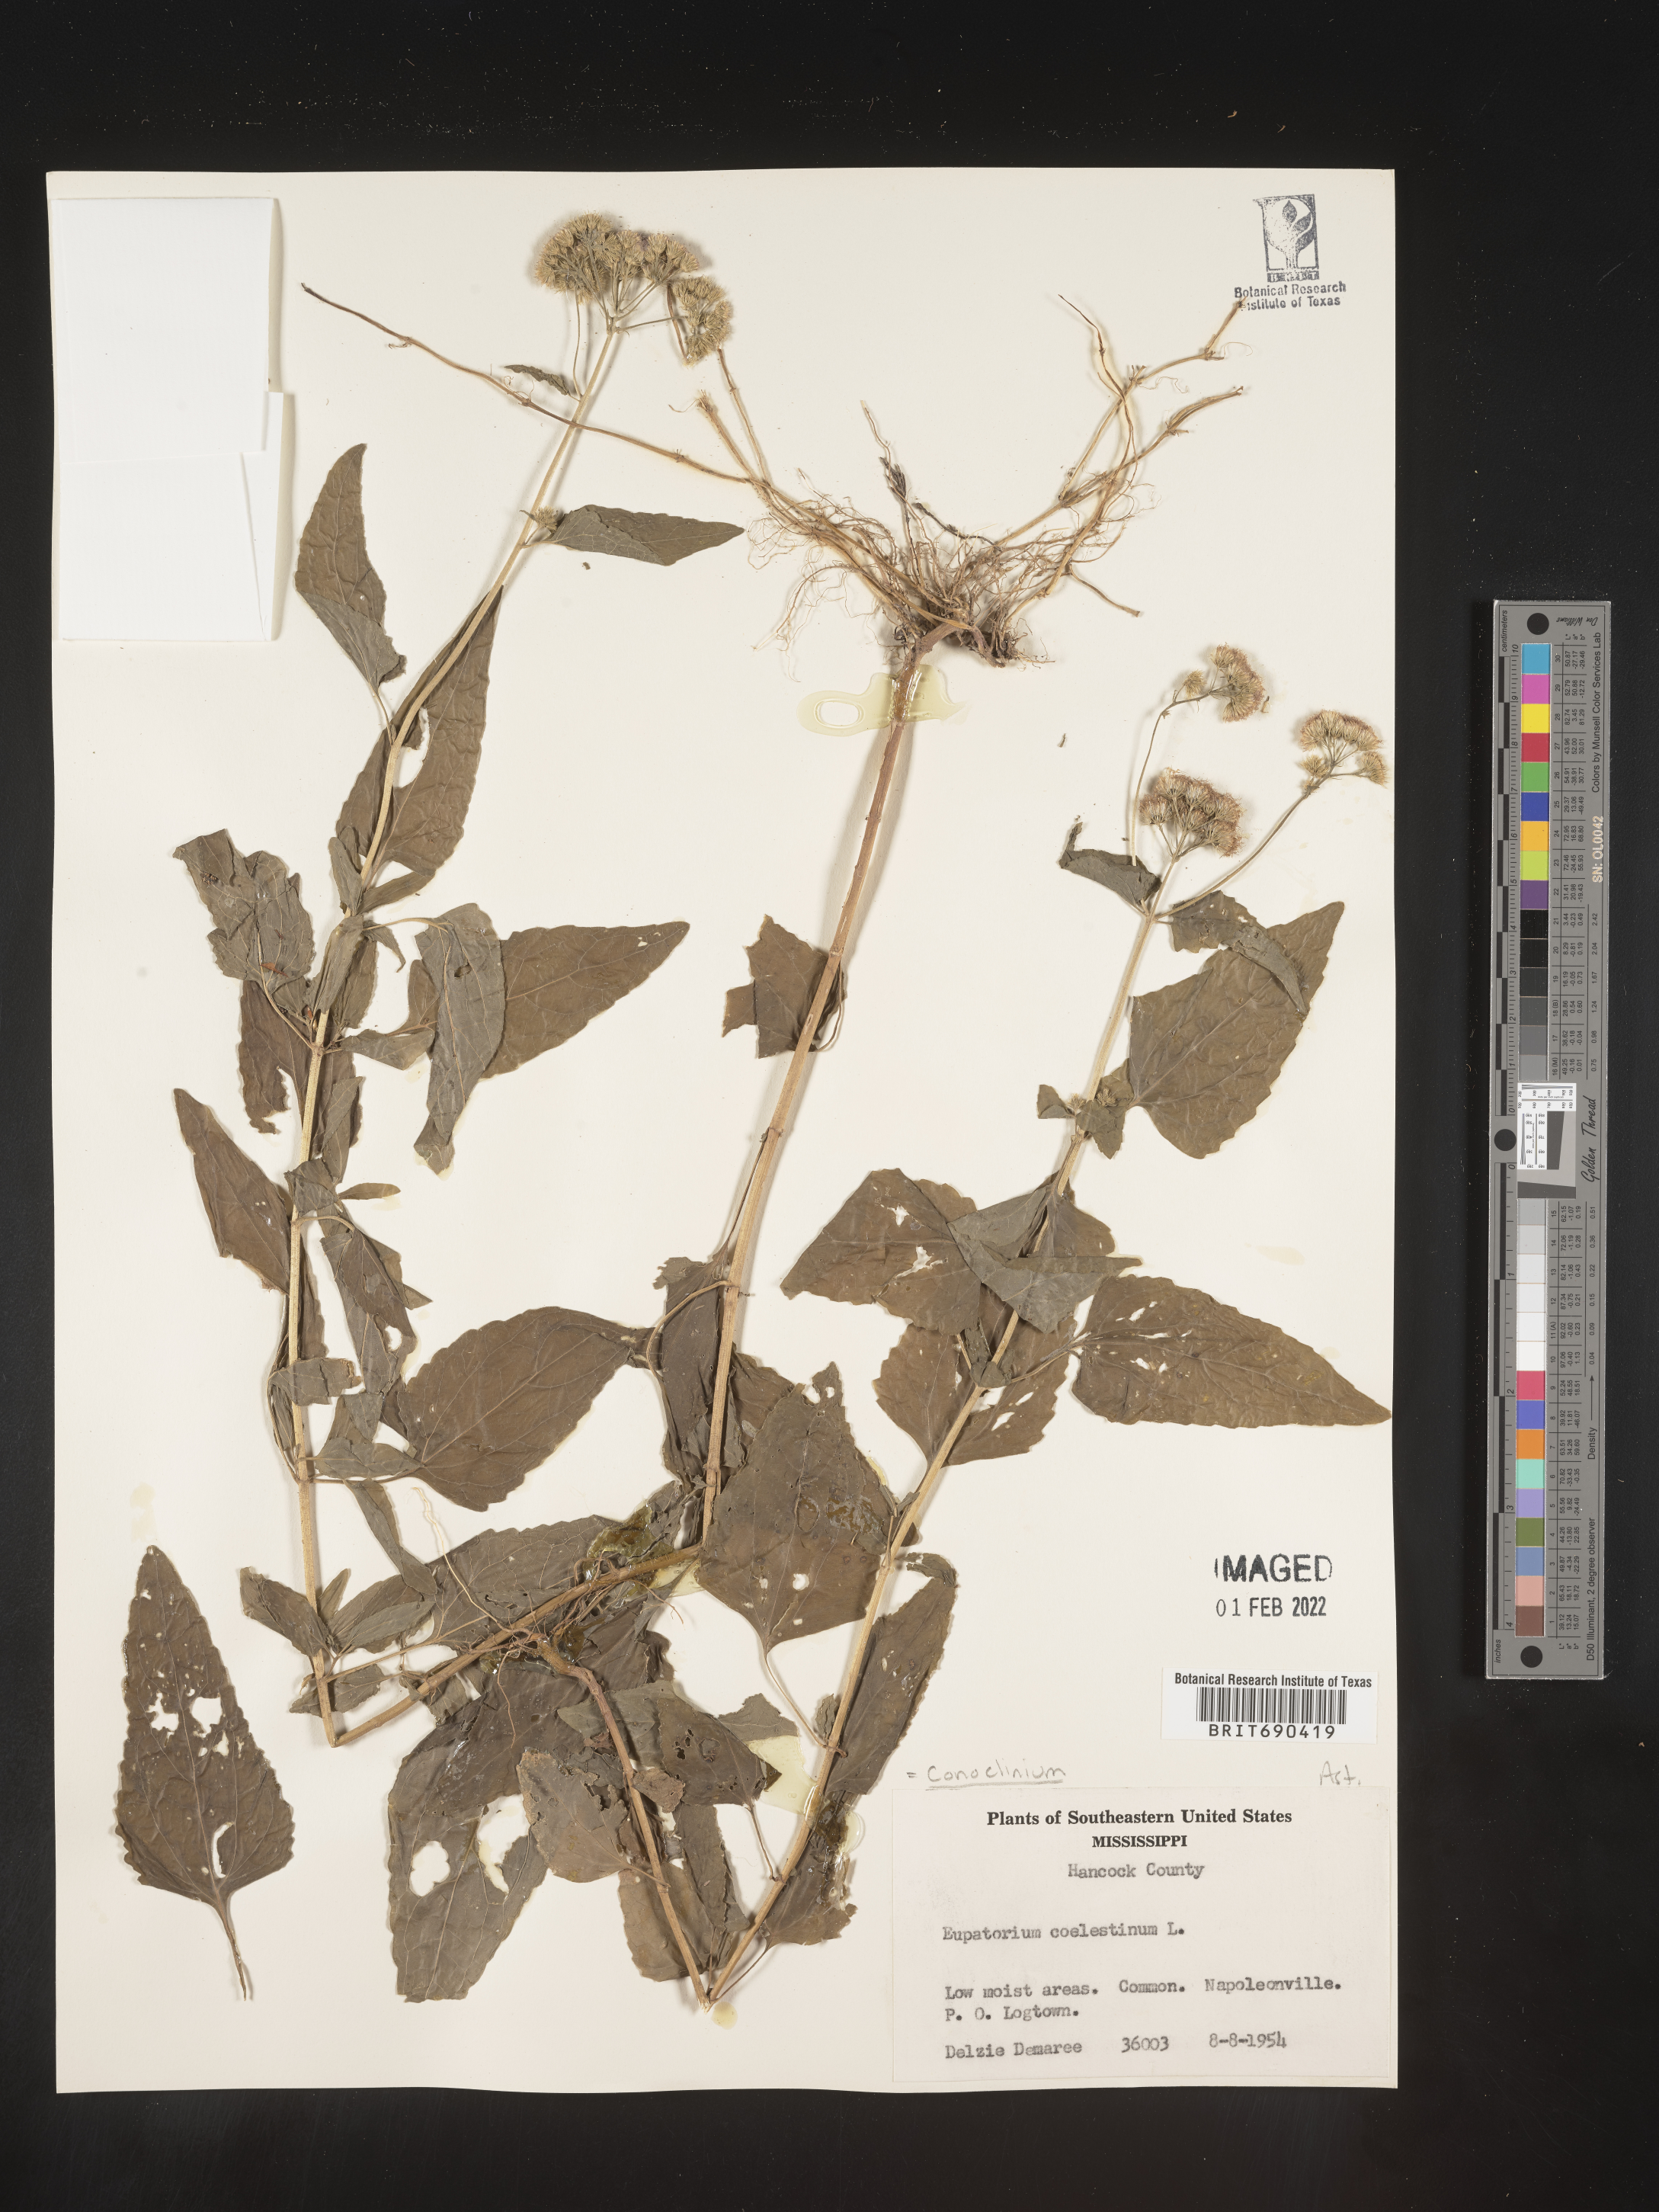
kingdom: Plantae
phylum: Tracheophyta
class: Magnoliopsida
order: Asterales
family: Asteraceae
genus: Conoclinium
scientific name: Conoclinium coelestinum
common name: Blue mistflower
